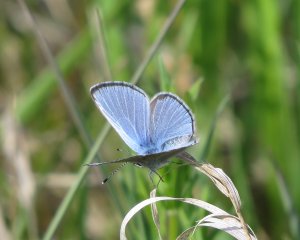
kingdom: Animalia
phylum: Arthropoda
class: Insecta
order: Lepidoptera
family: Lycaenidae
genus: Glaucopsyche
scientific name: Glaucopsyche lygdamus
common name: Silvery Blue
